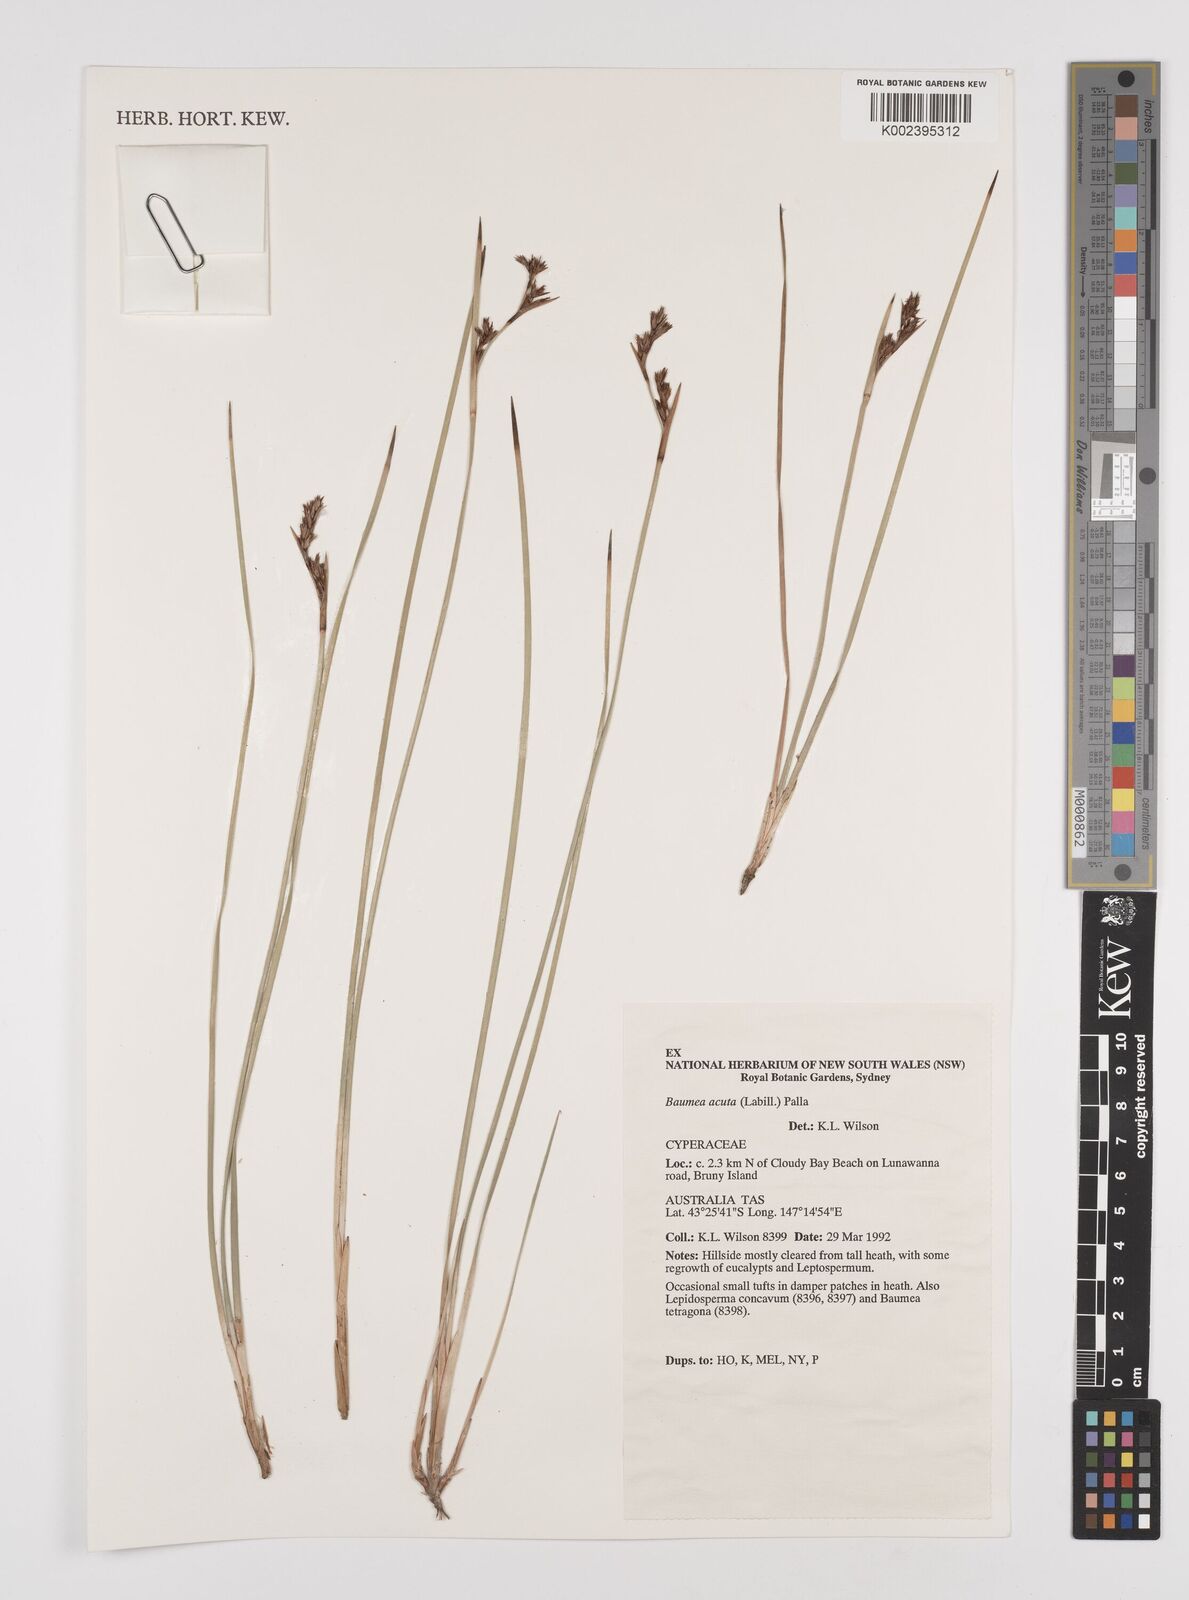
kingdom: Plantae
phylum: Tracheophyta
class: Liliopsida
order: Poales
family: Cyperaceae
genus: Machaerina
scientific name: Machaerina acuta
